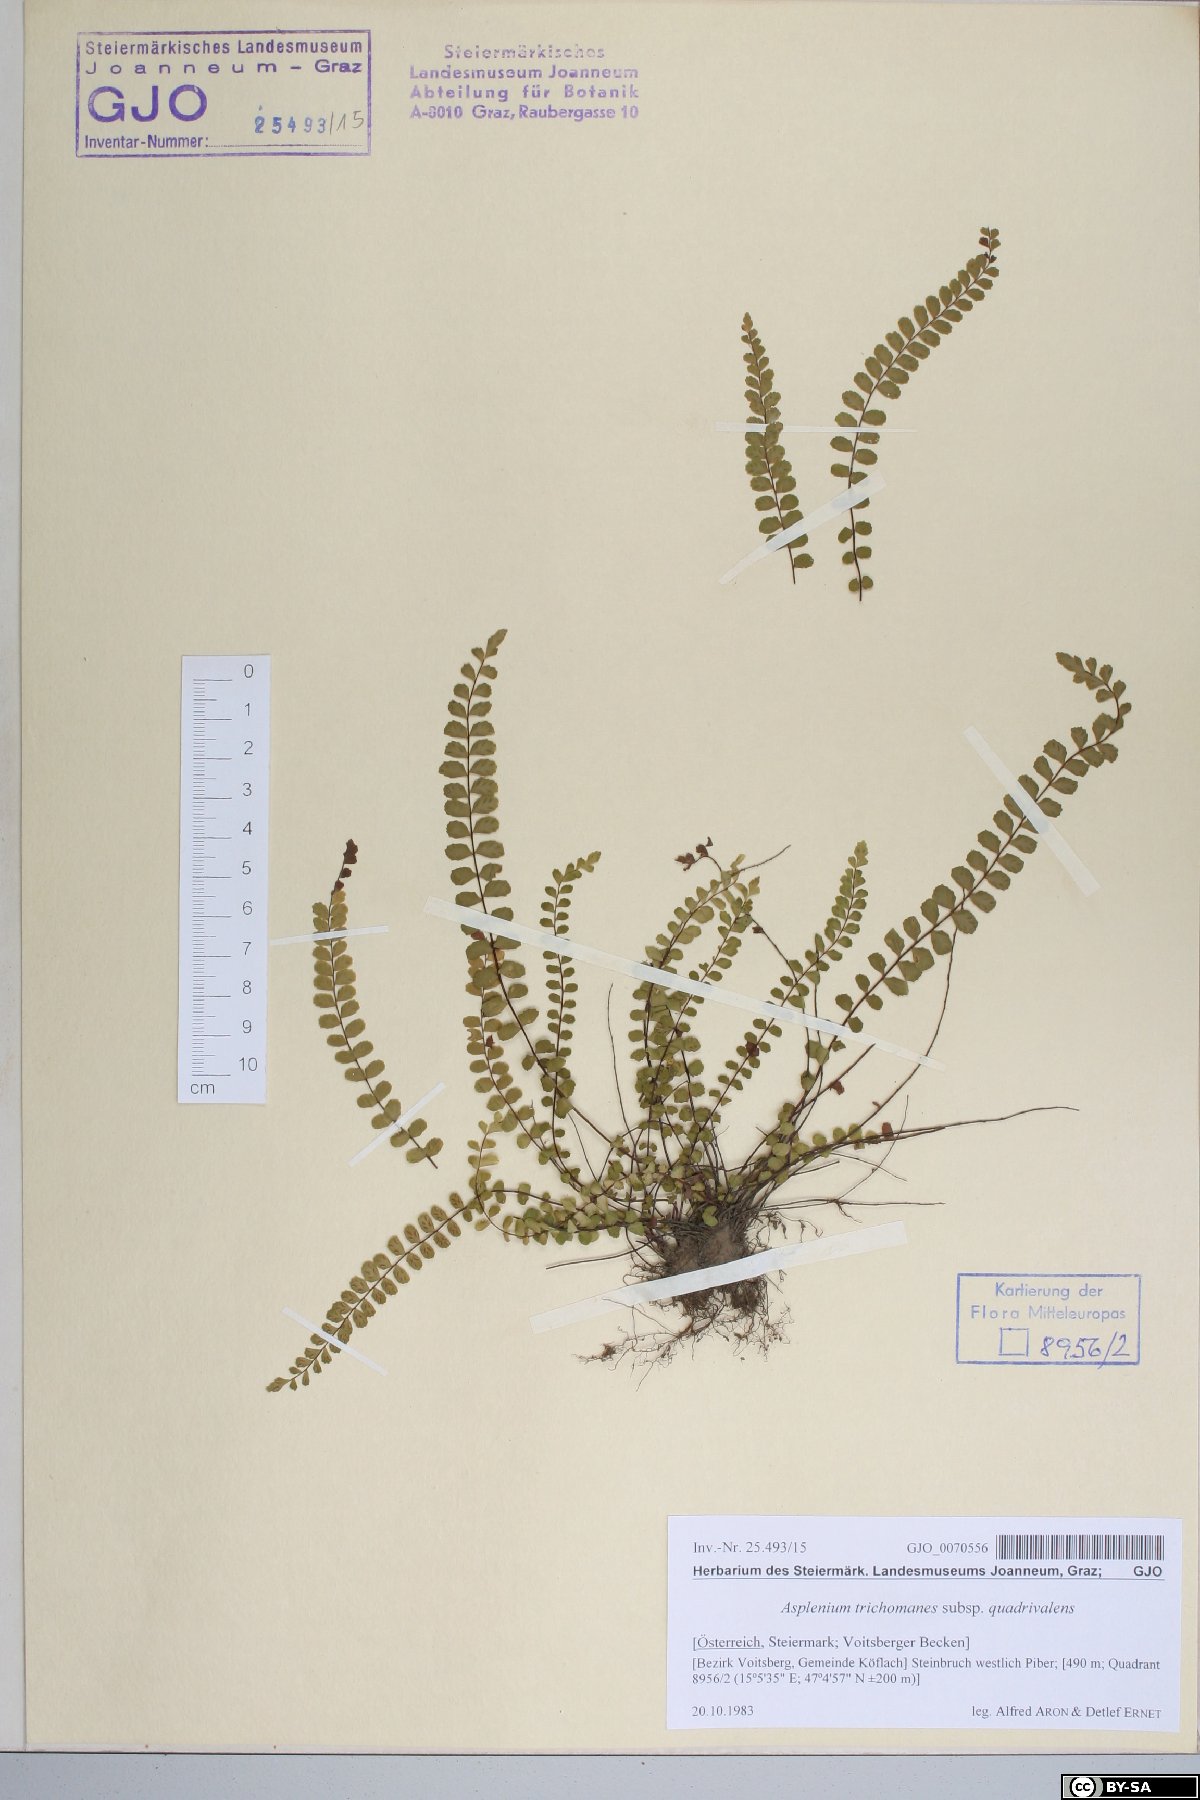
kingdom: Plantae
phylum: Tracheophyta
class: Polypodiopsida
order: Polypodiales
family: Aspleniaceae
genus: Asplenium
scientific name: Asplenium quadrivalens
